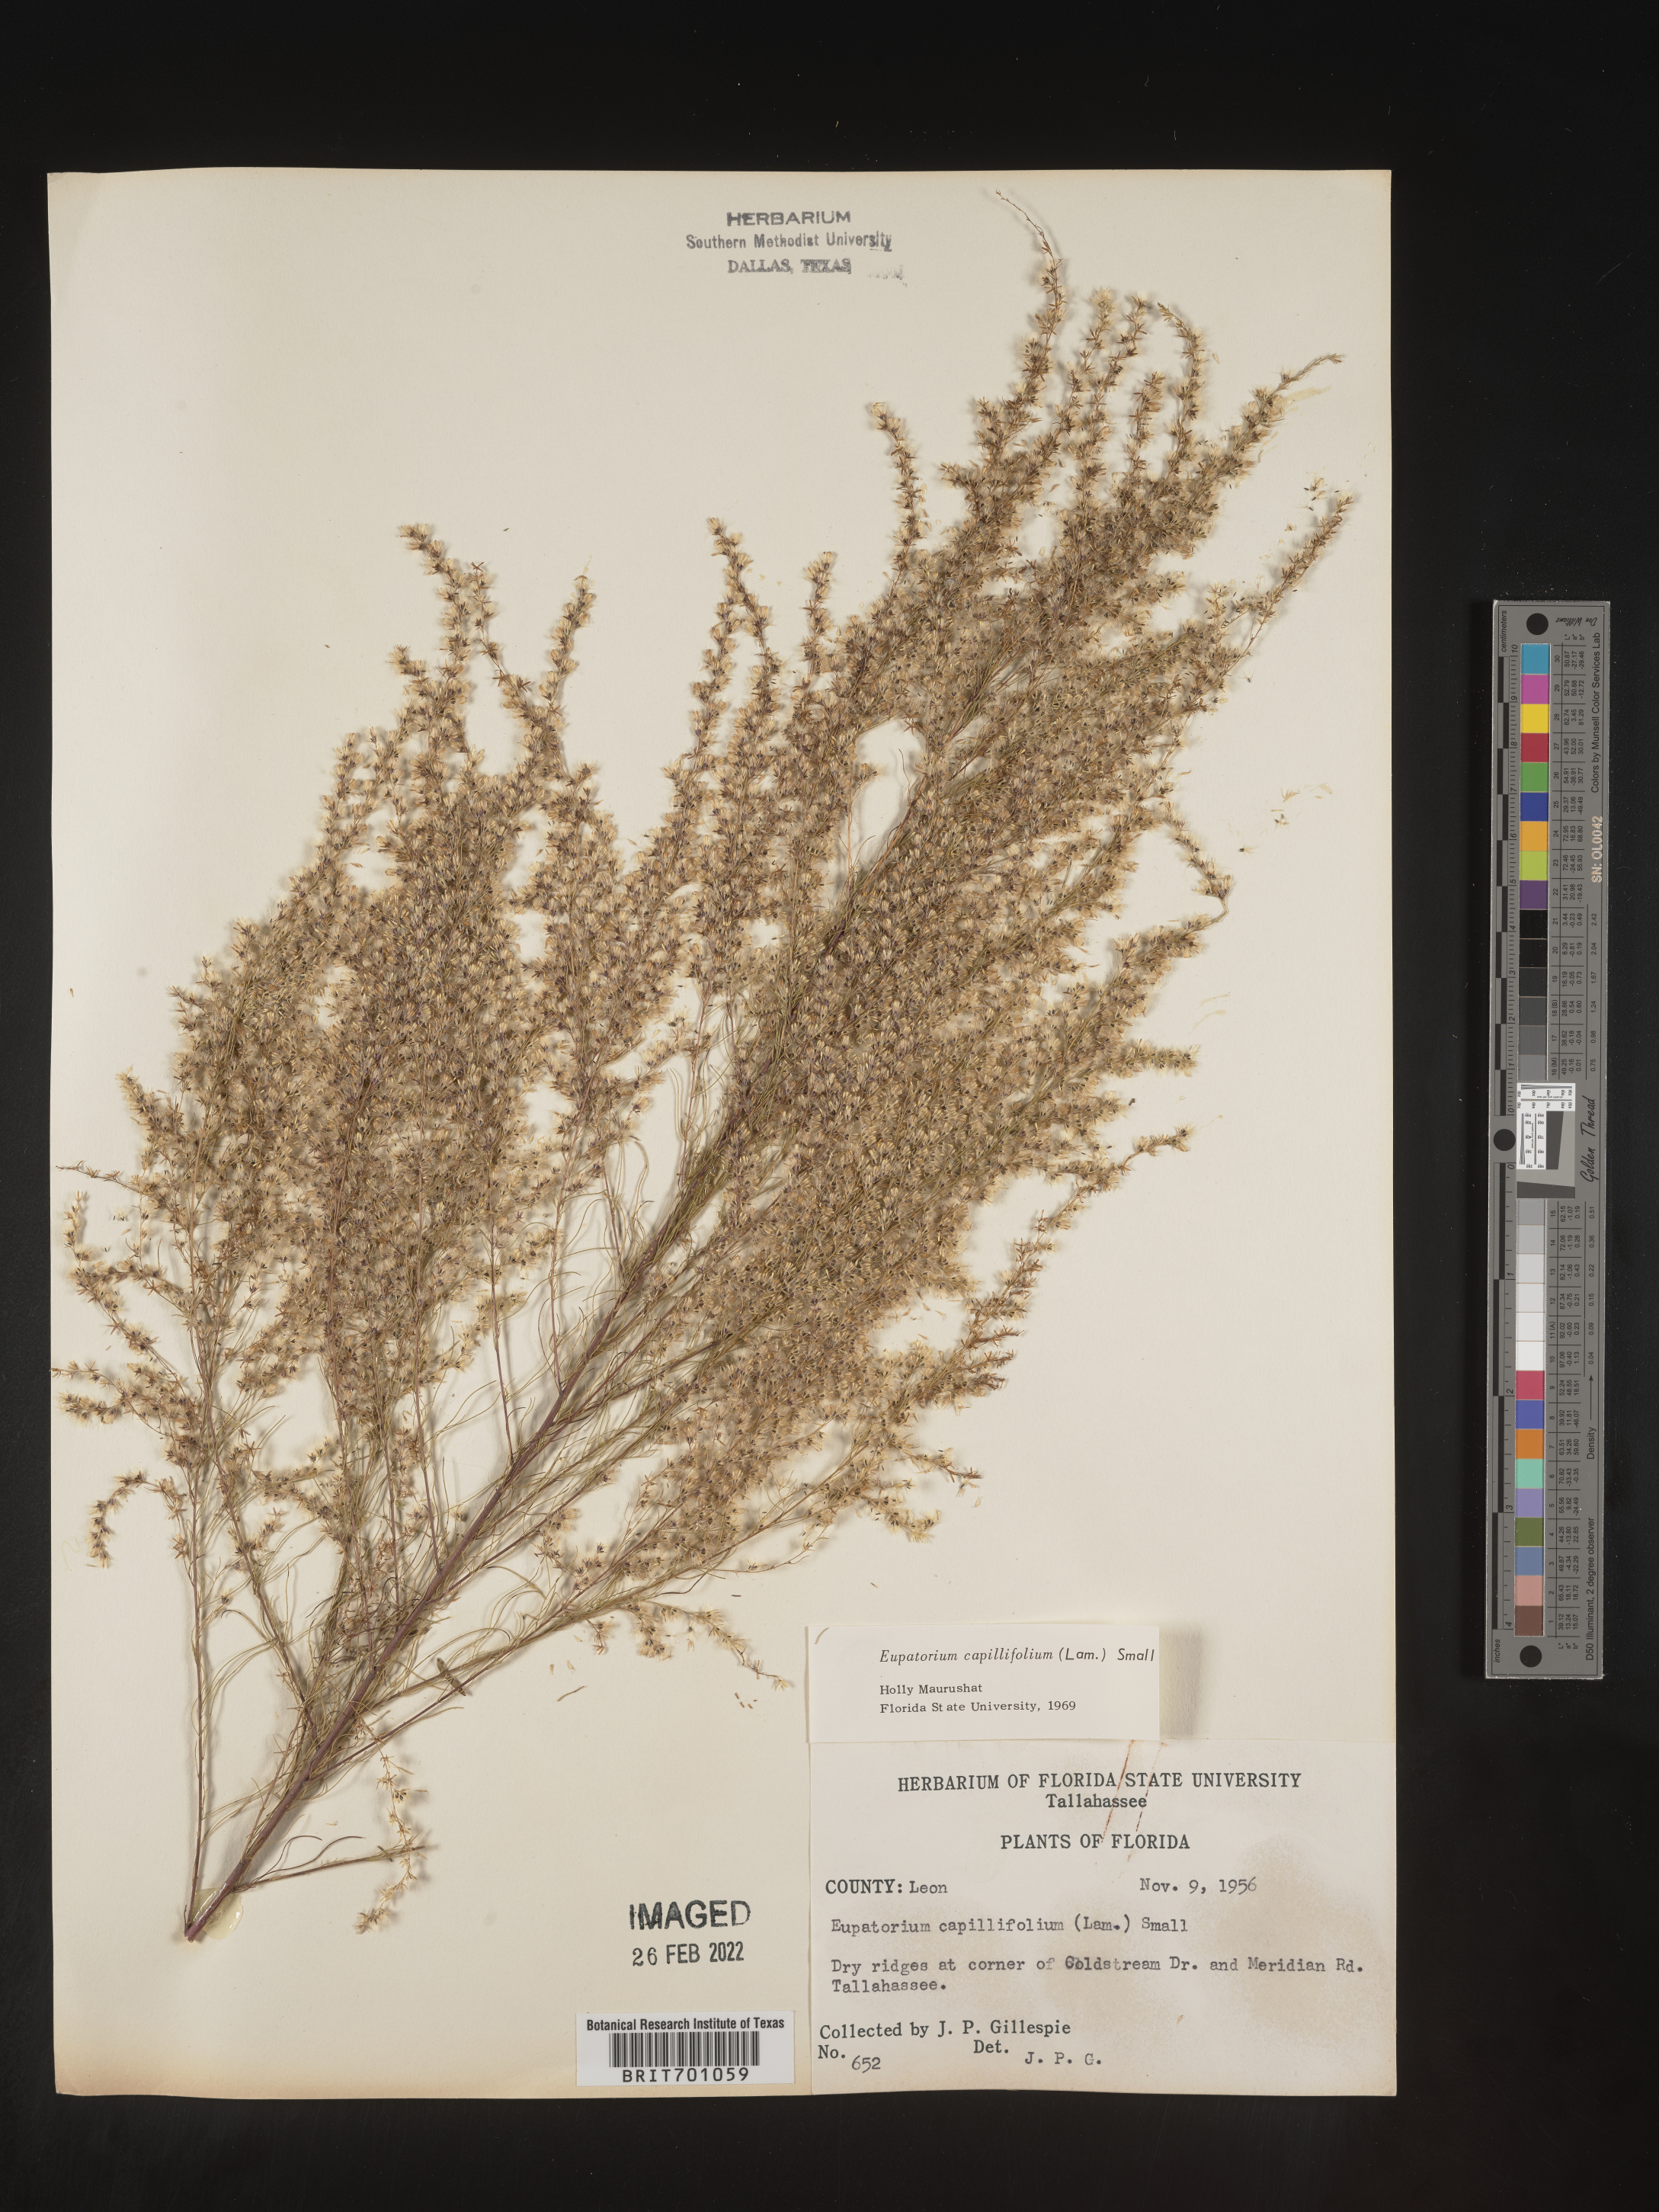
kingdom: Plantae
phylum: Tracheophyta
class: Magnoliopsida
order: Asterales
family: Asteraceae
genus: Eupatorium
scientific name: Eupatorium capillifolium
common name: Dog-fennel
